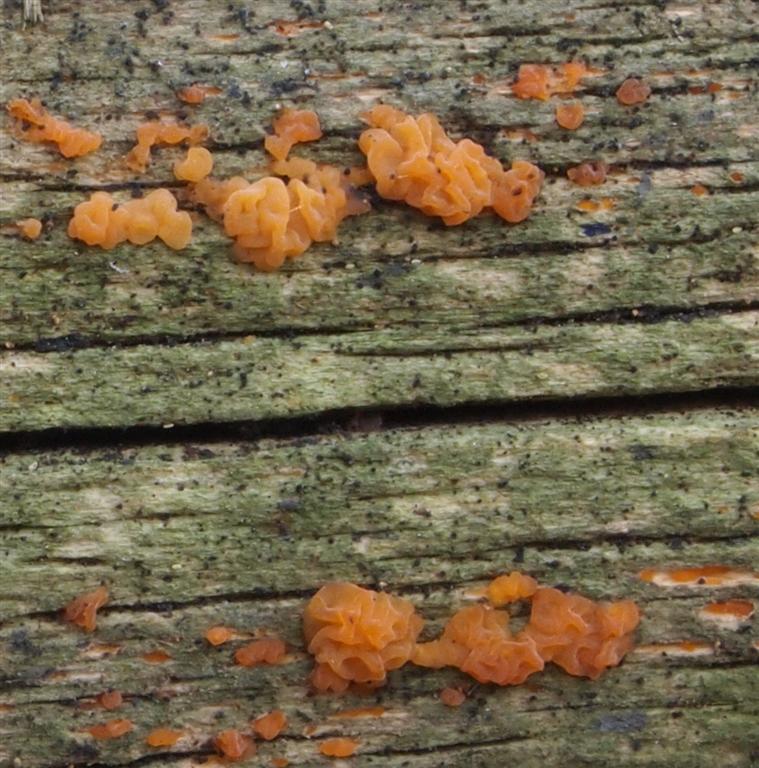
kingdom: Fungi
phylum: Basidiomycota
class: Dacrymycetes
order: Dacrymycetales
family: Dacrymycetaceae
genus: Dacrymyces
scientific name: Dacrymyces lacrymalis
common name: rynket tåresvamp
